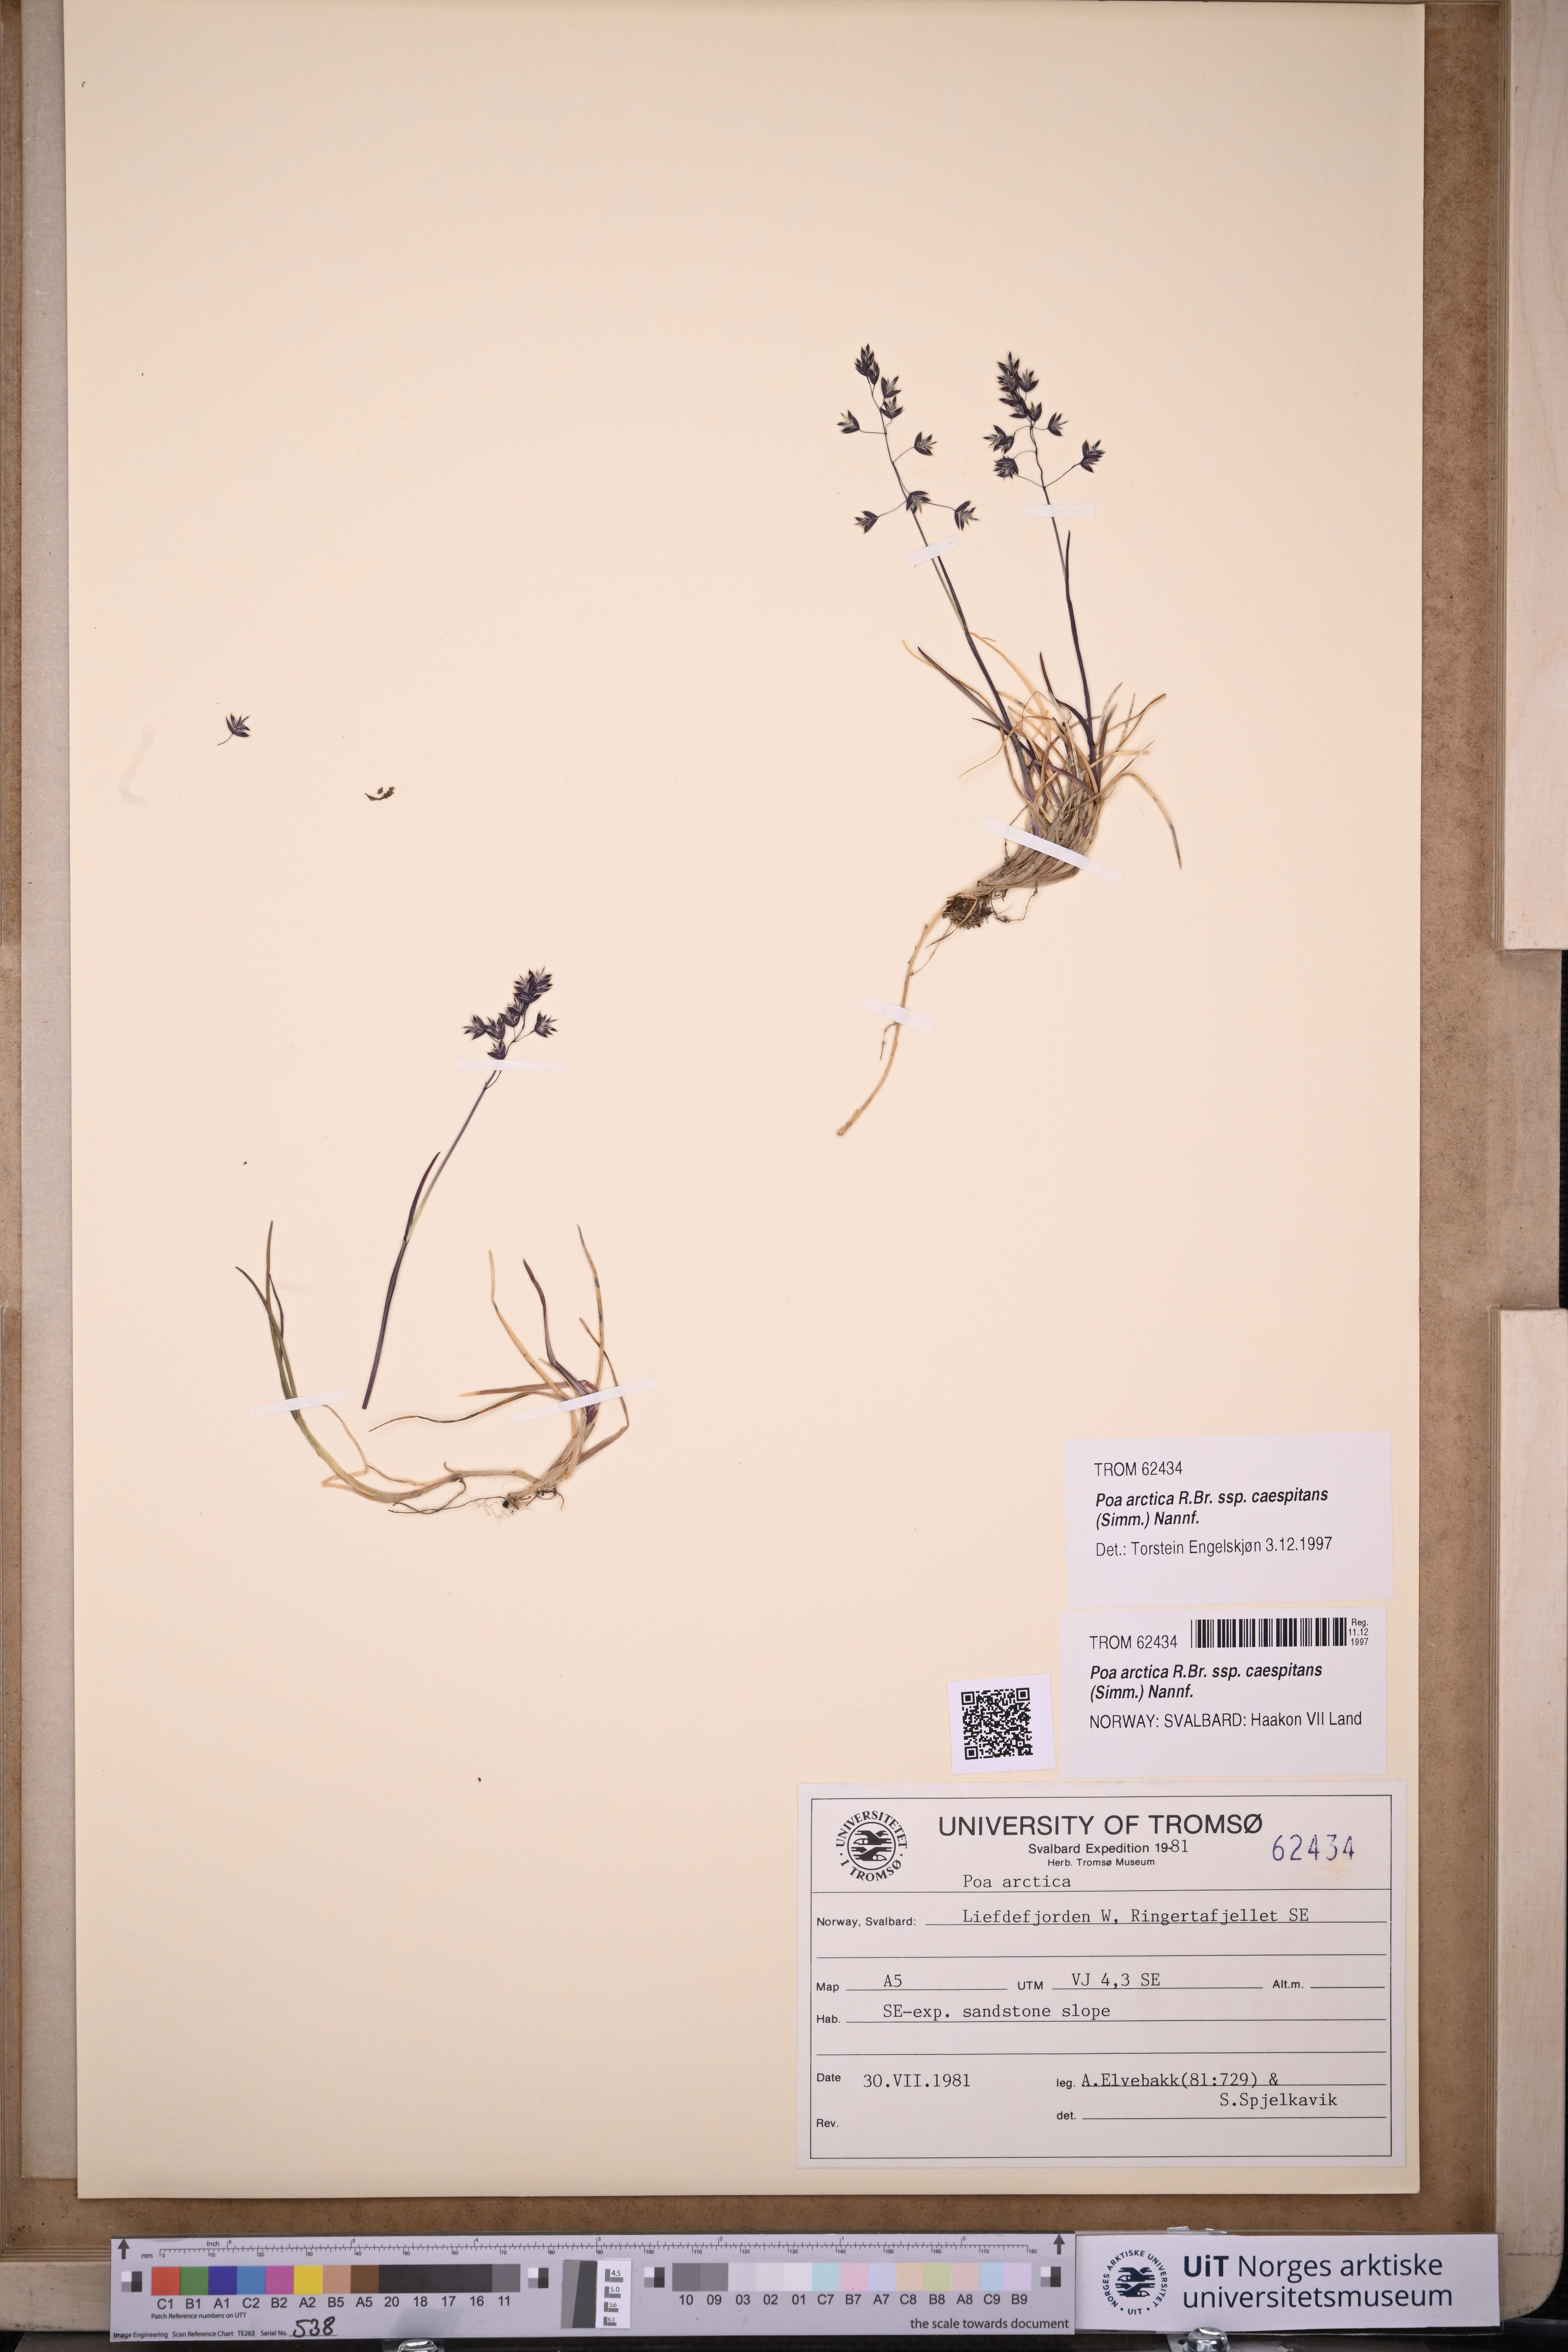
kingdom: Plantae
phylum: Tracheophyta
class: Liliopsida
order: Poales
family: Poaceae
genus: Poa
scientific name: Poa tolmatchewii
